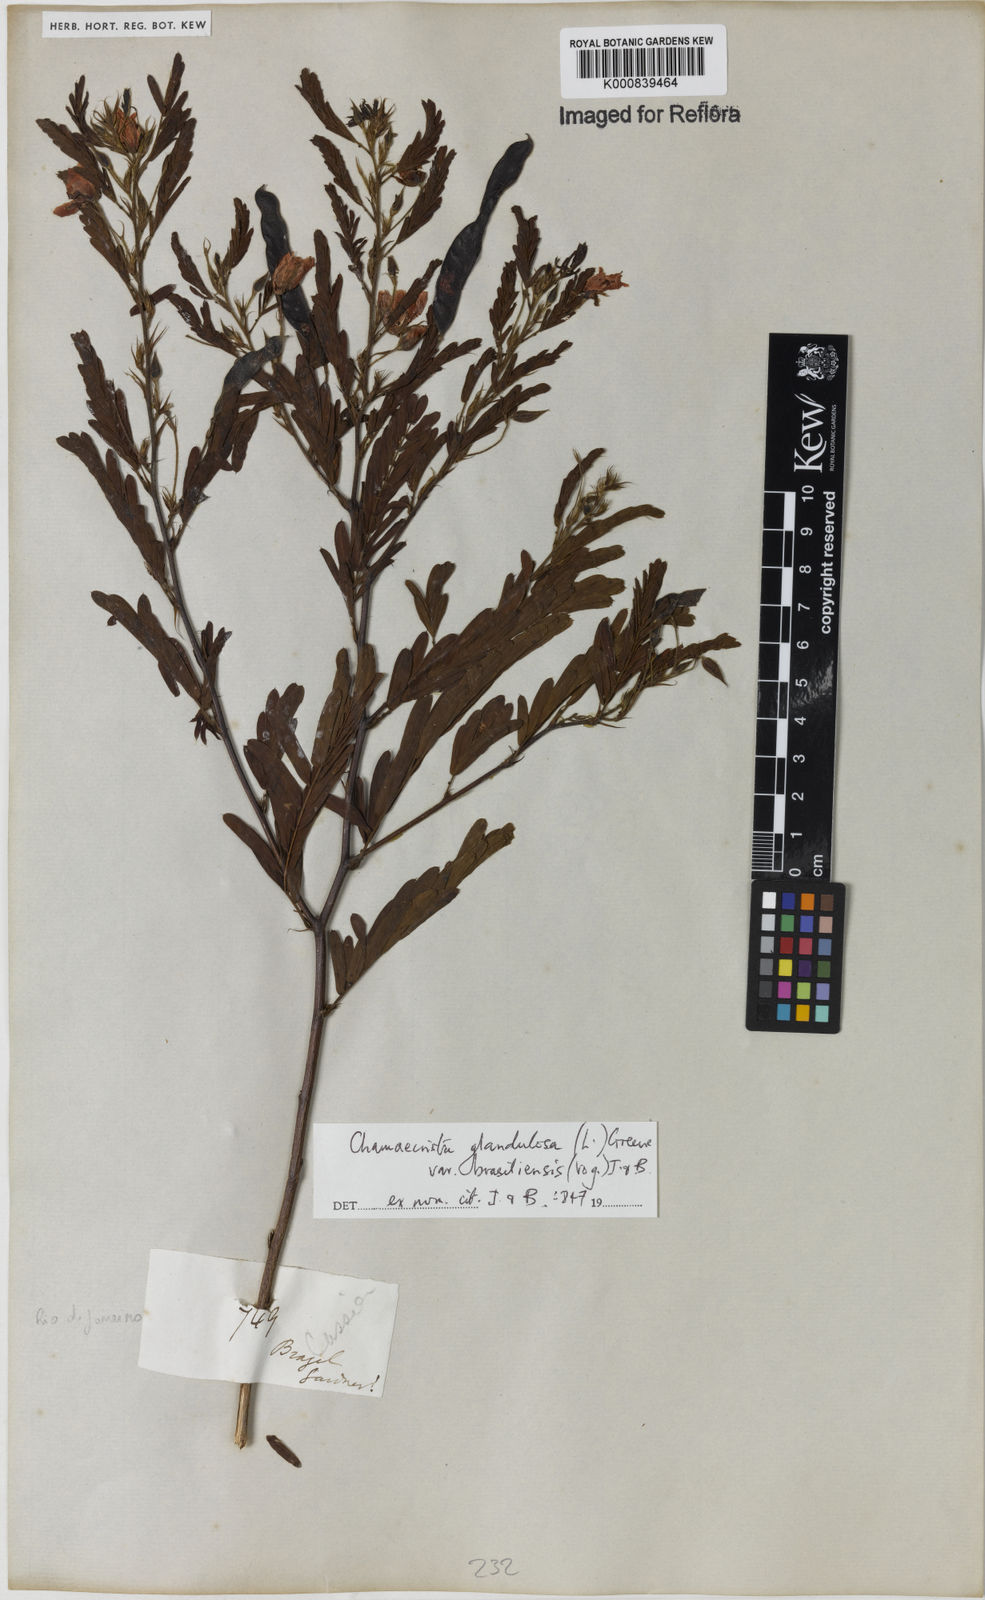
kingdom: Plantae
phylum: Tracheophyta
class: Magnoliopsida
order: Fabales
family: Fabaceae
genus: Chamaecrista
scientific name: Chamaecrista glandulosa
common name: Wild peas
